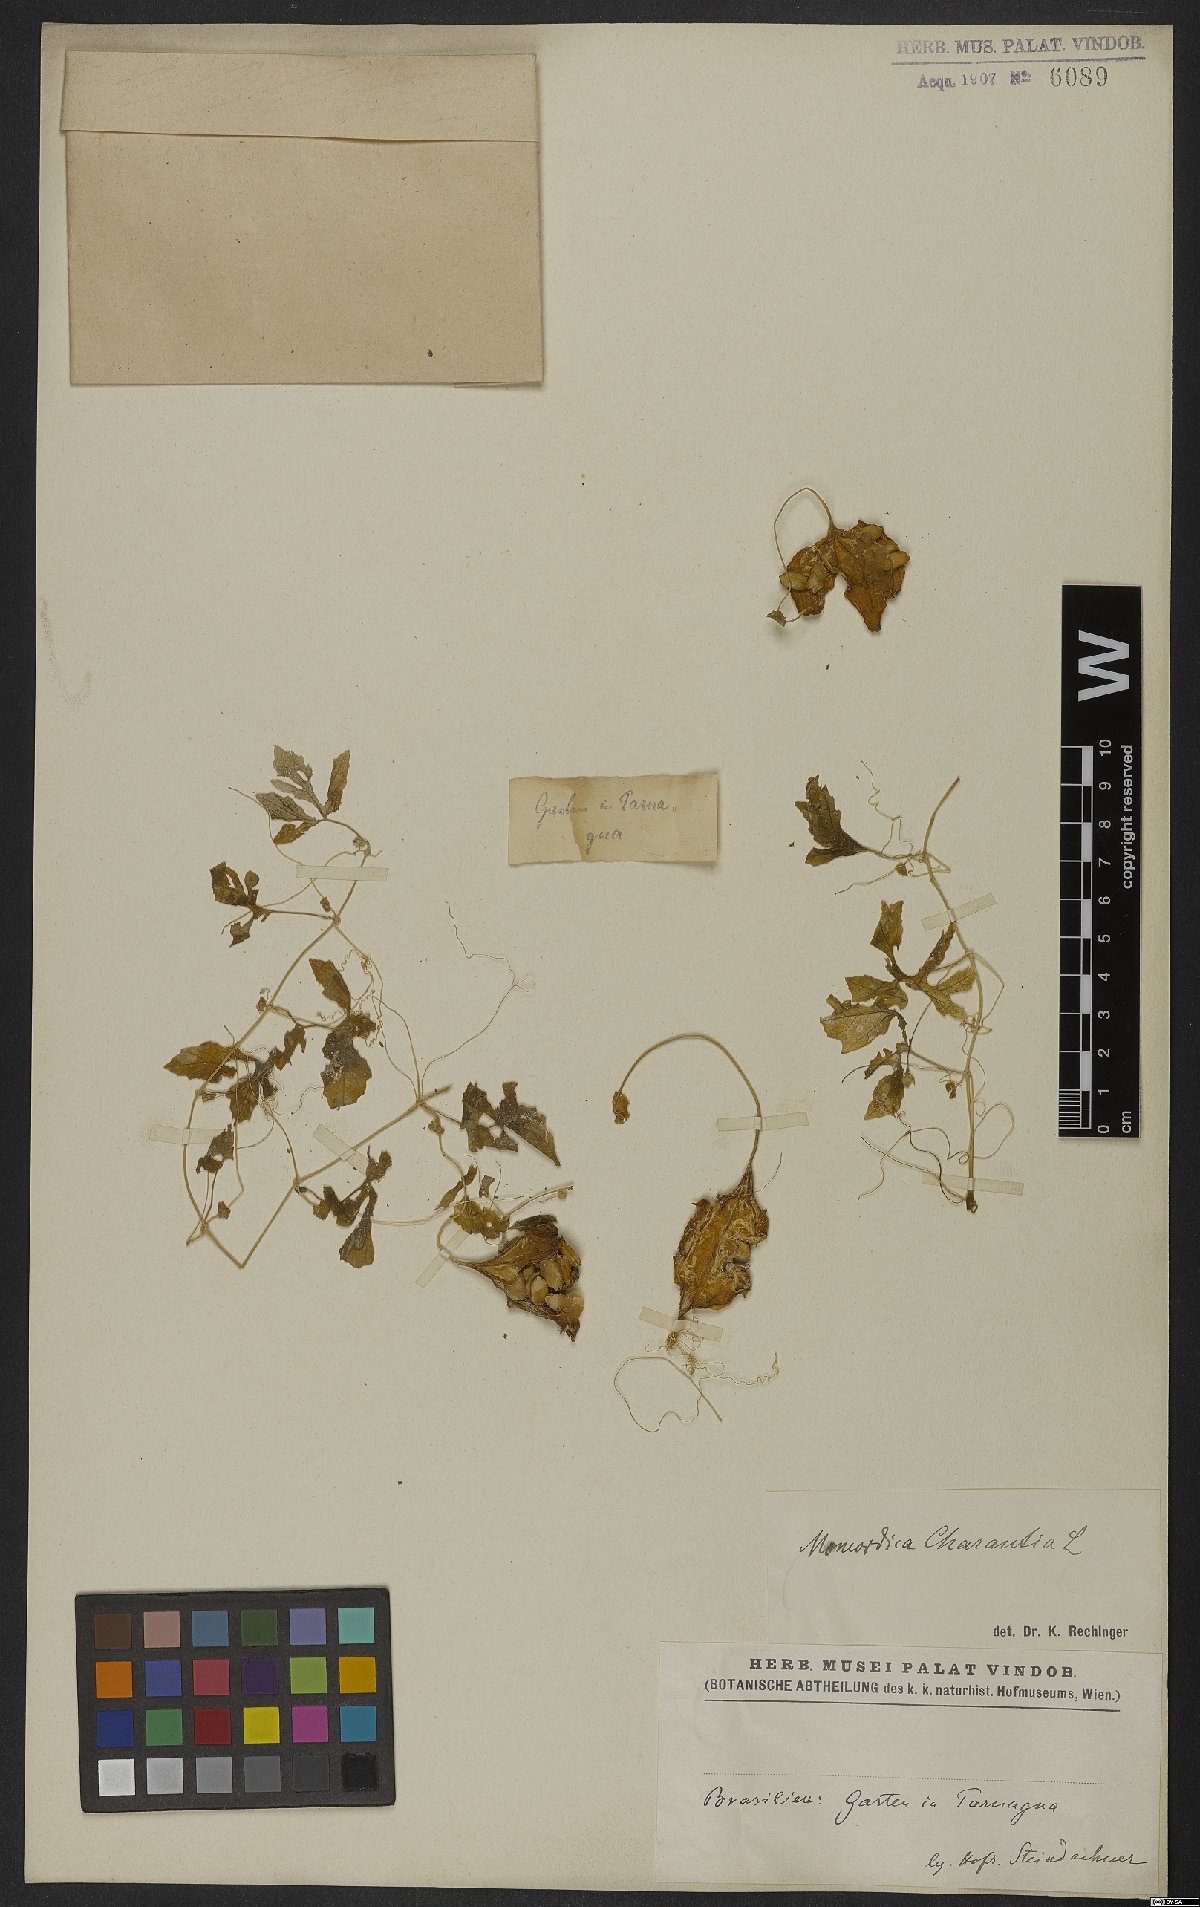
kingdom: Plantae
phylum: Tracheophyta
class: Magnoliopsida
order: Cucurbitales
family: Cucurbitaceae
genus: Momordica
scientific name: Momordica charantia
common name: Balsampear
